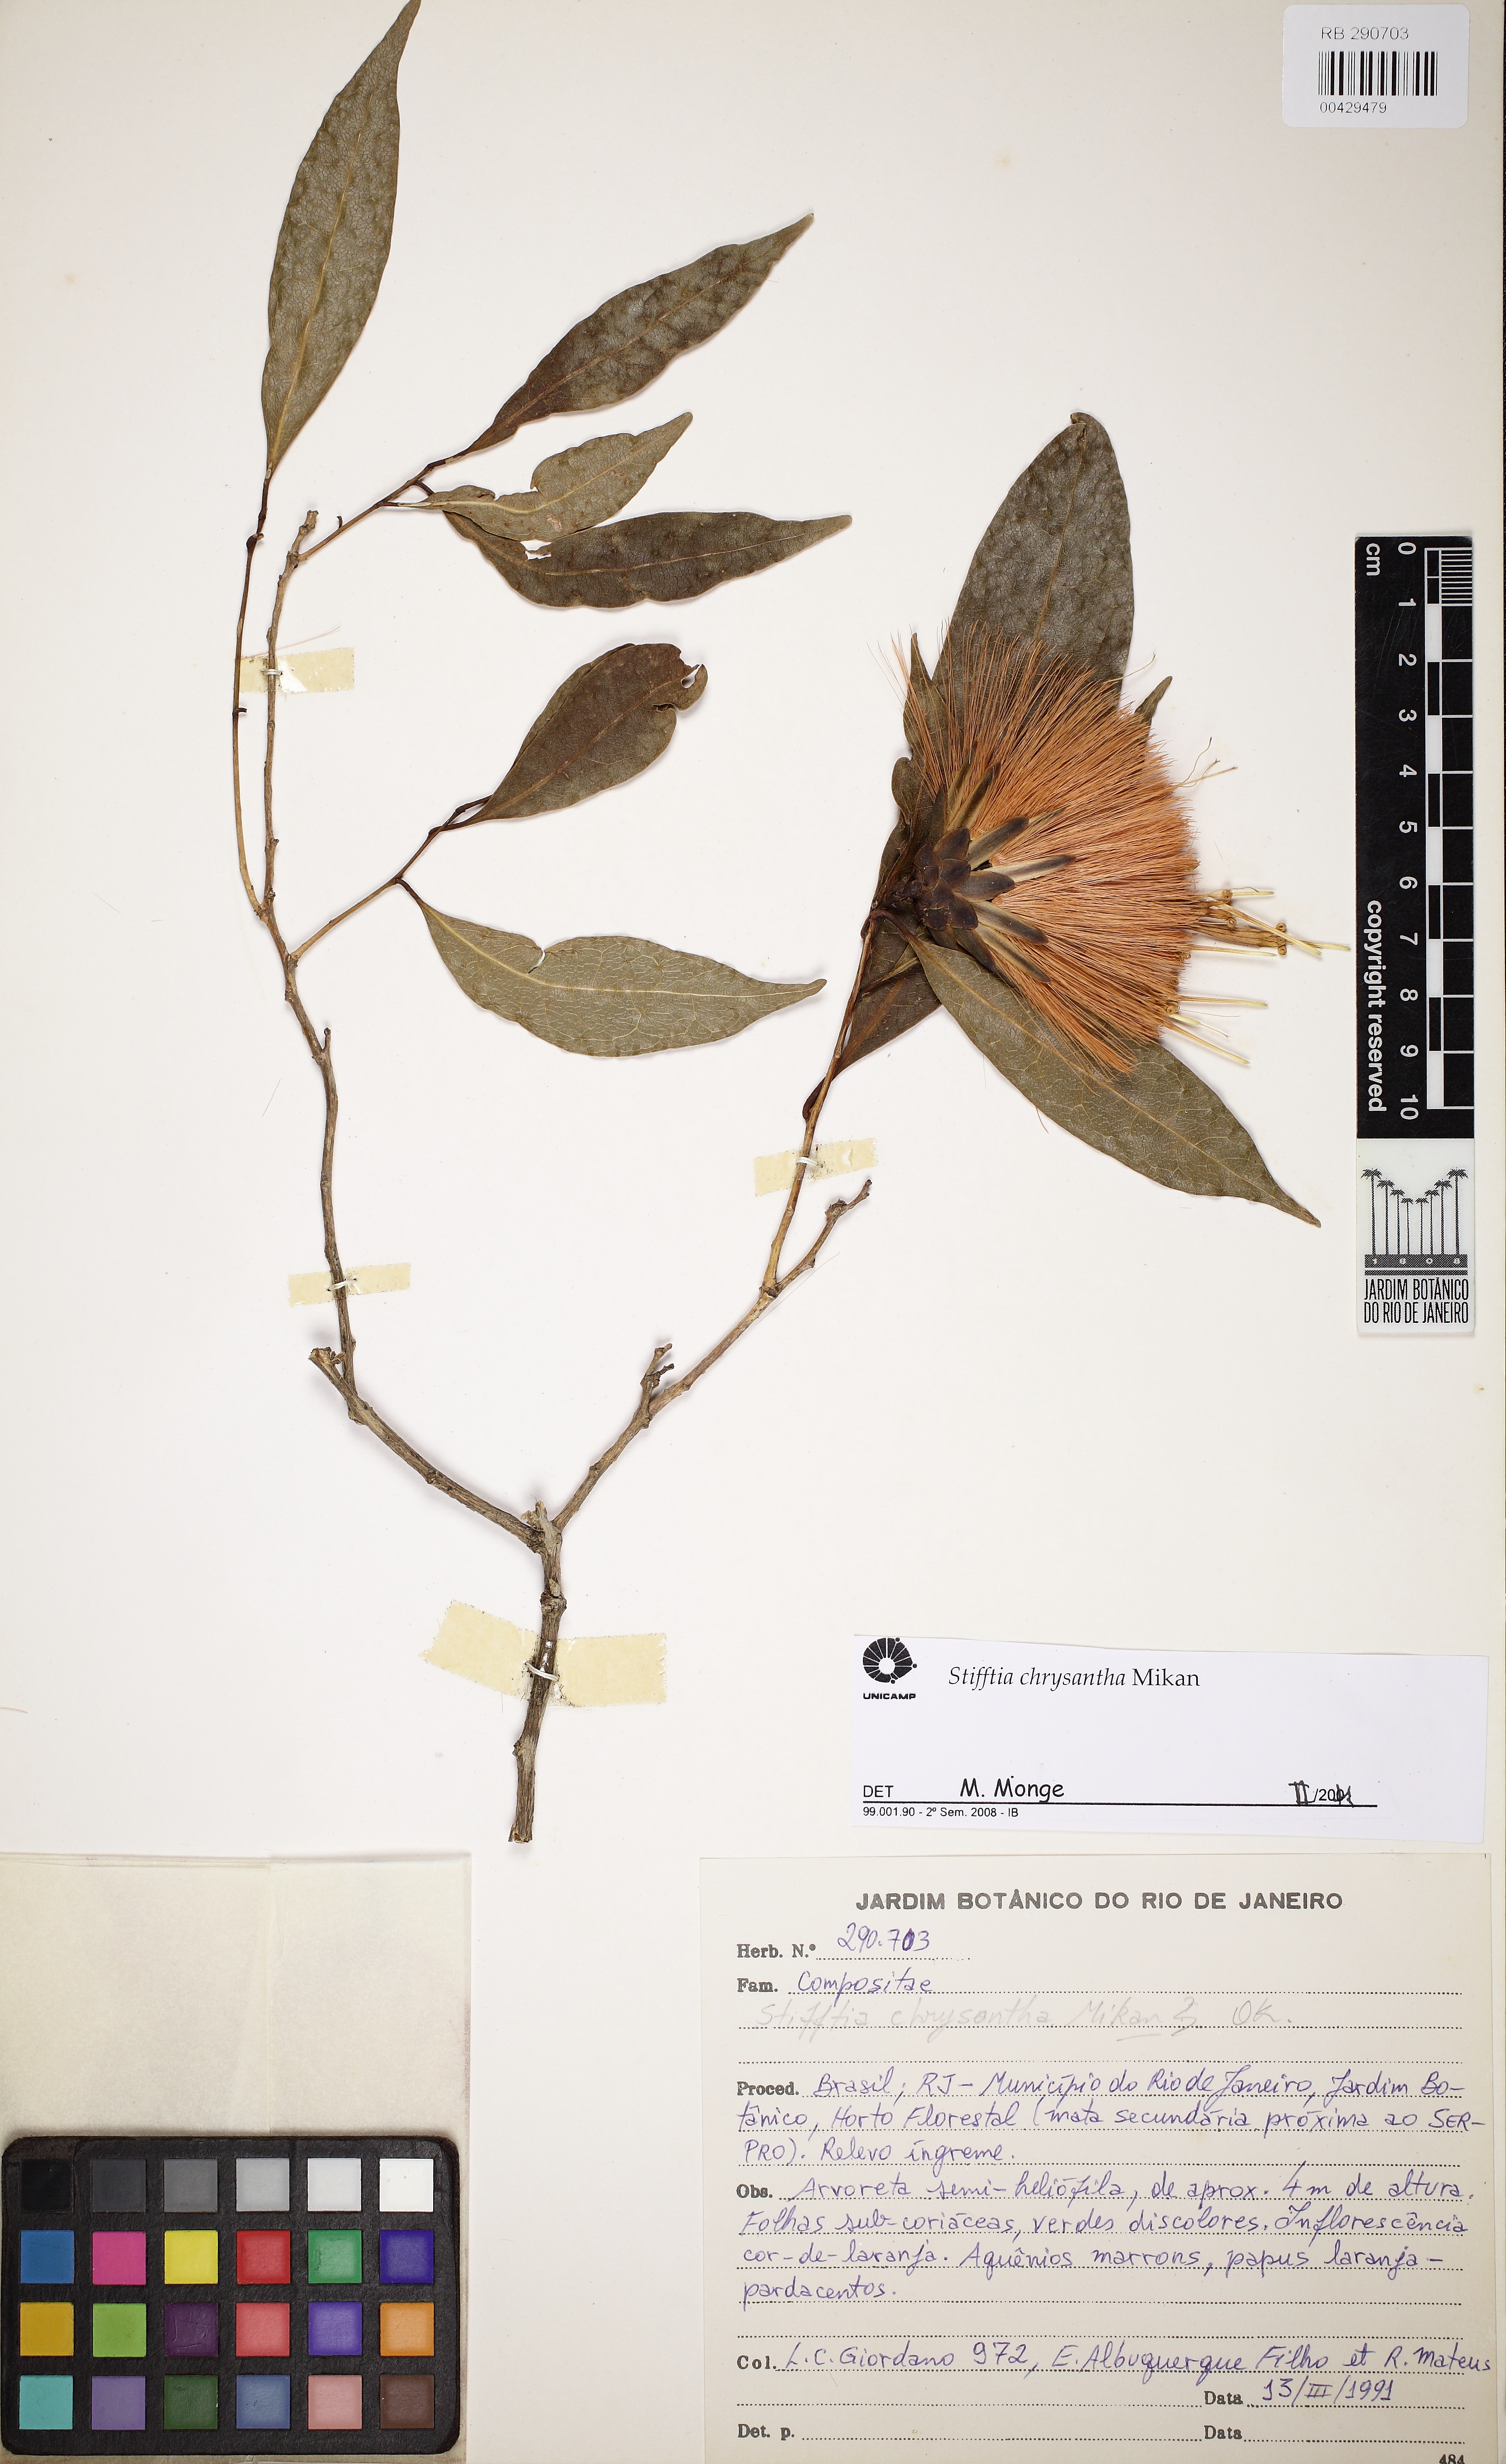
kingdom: Plantae
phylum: Tracheophyta
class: Magnoliopsida
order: Asterales
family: Asteraceae
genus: Stifftia
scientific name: Stifftia chrysantha
